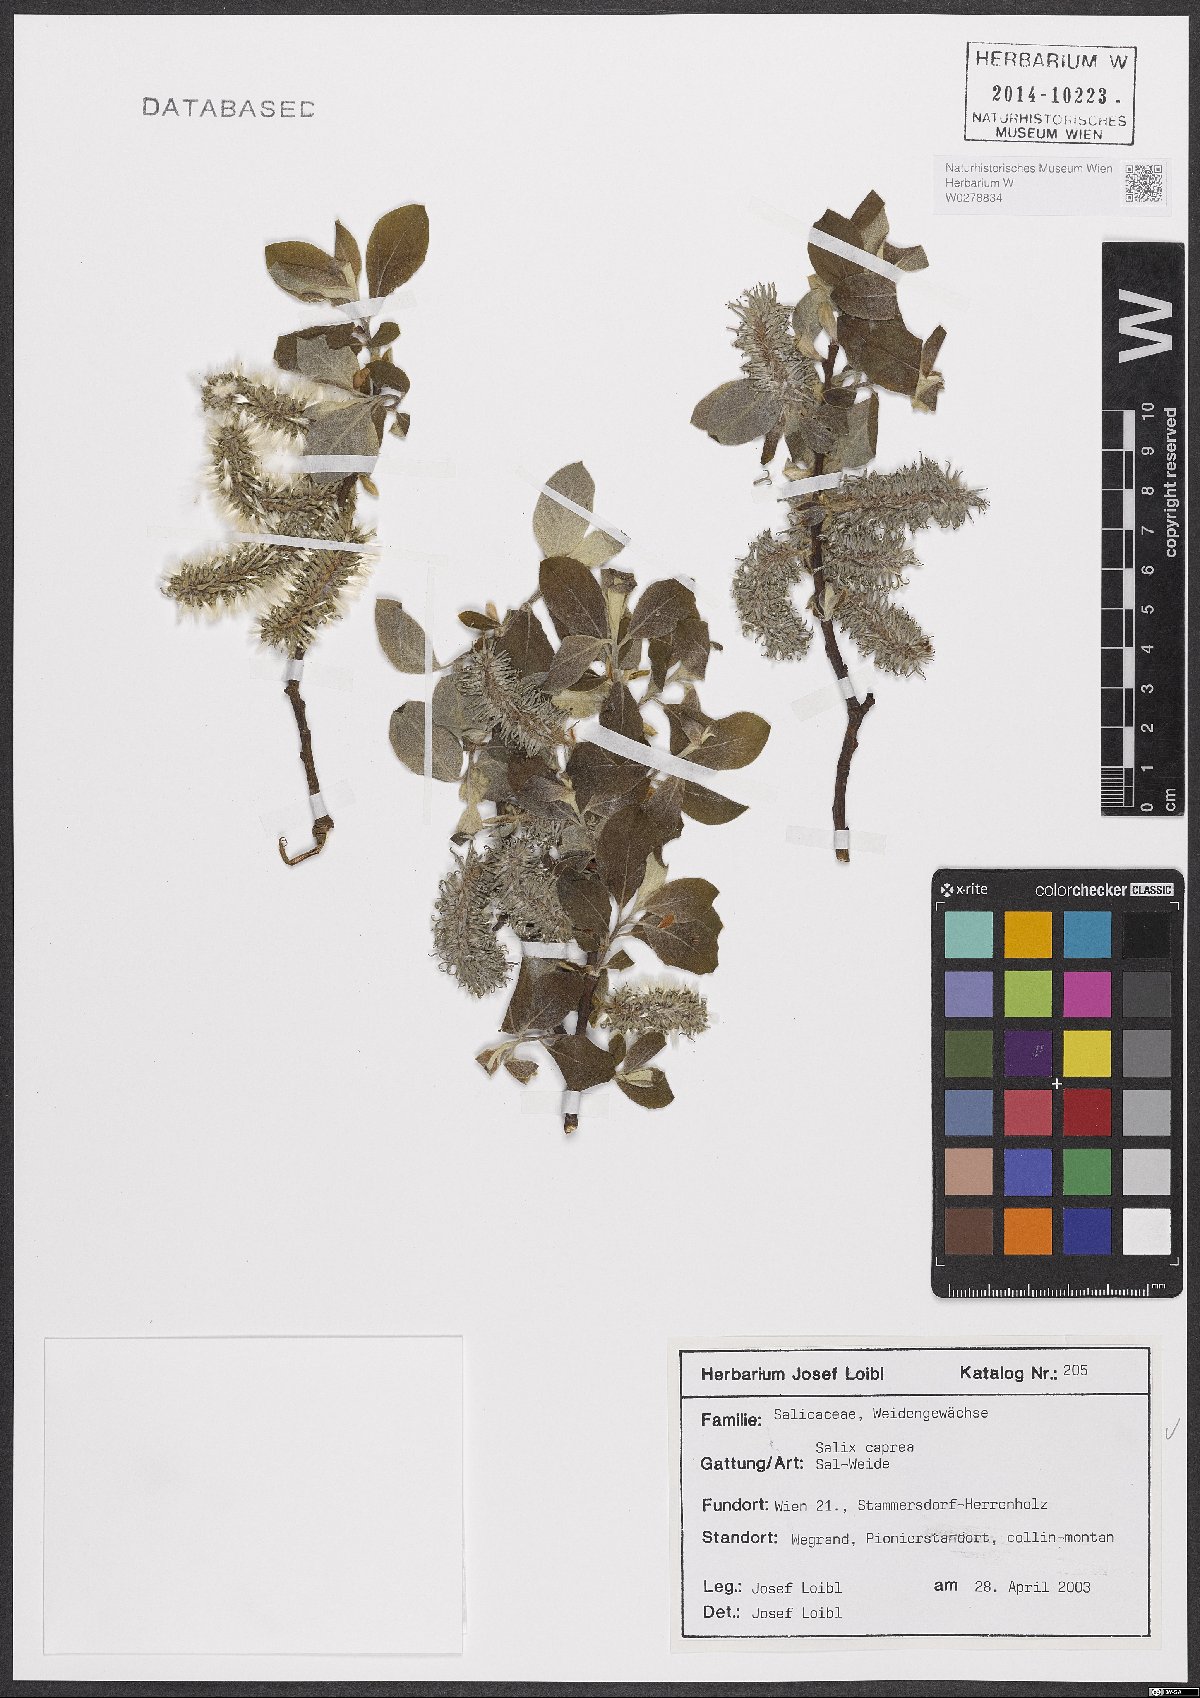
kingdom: Plantae
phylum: Tracheophyta
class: Magnoliopsida
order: Malpighiales
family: Salicaceae
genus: Salix
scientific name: Salix caprea
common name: Goat willow
